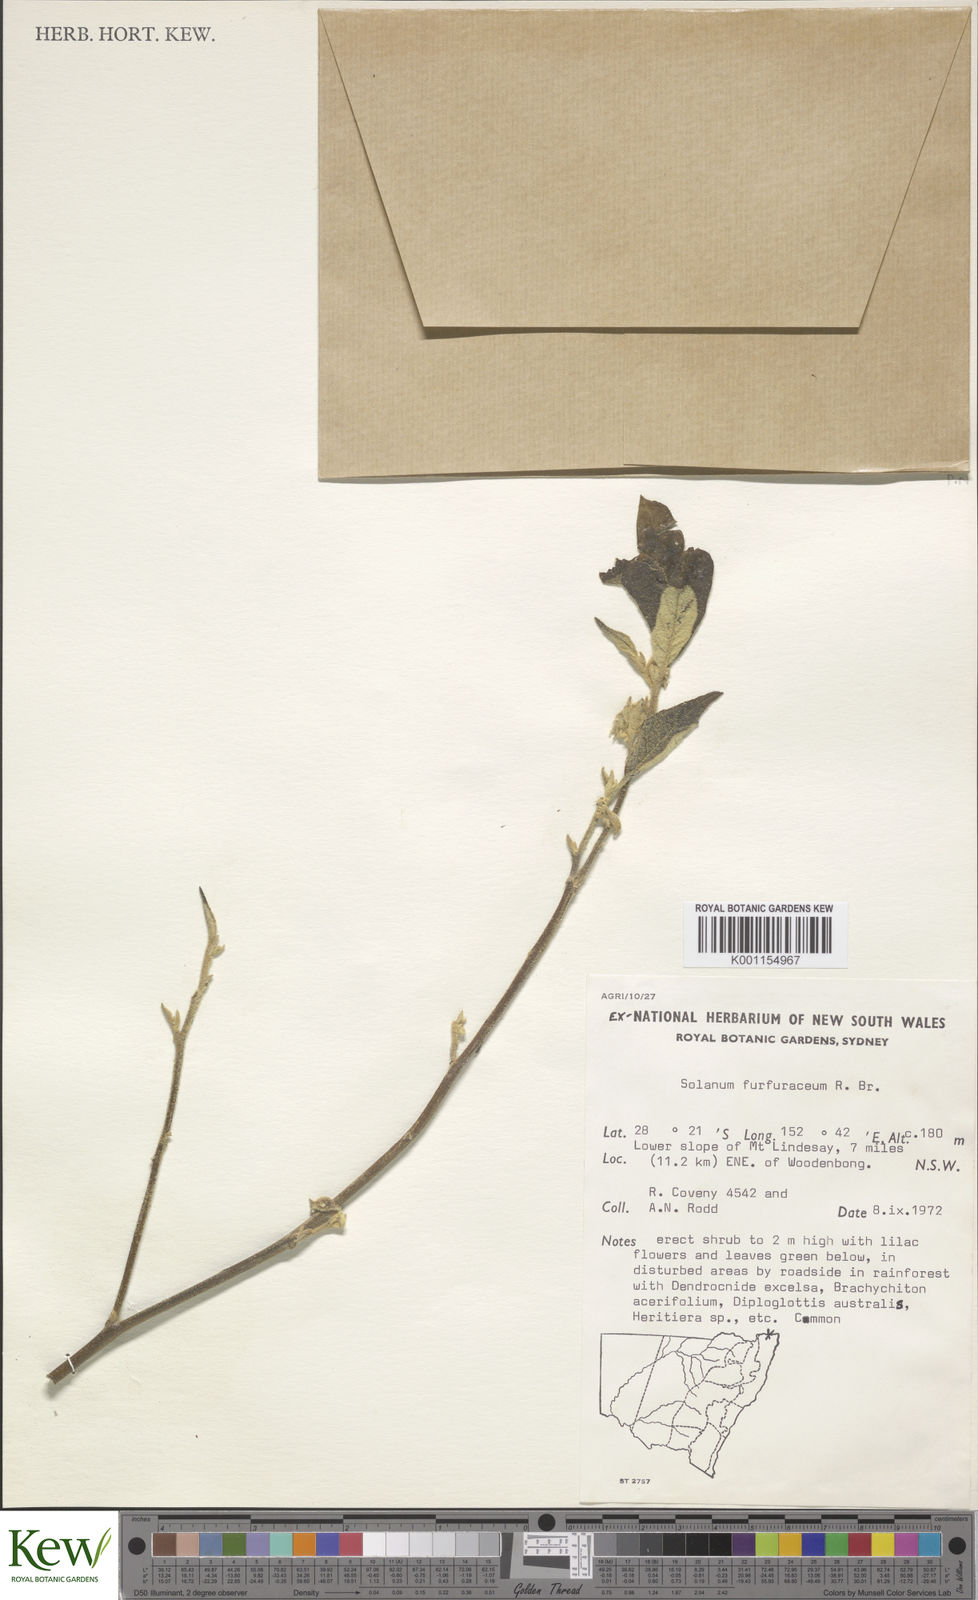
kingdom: Plantae
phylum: Tracheophyta
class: Magnoliopsida
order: Solanales
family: Solanaceae
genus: Solanum
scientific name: Solanum furfuraceum
